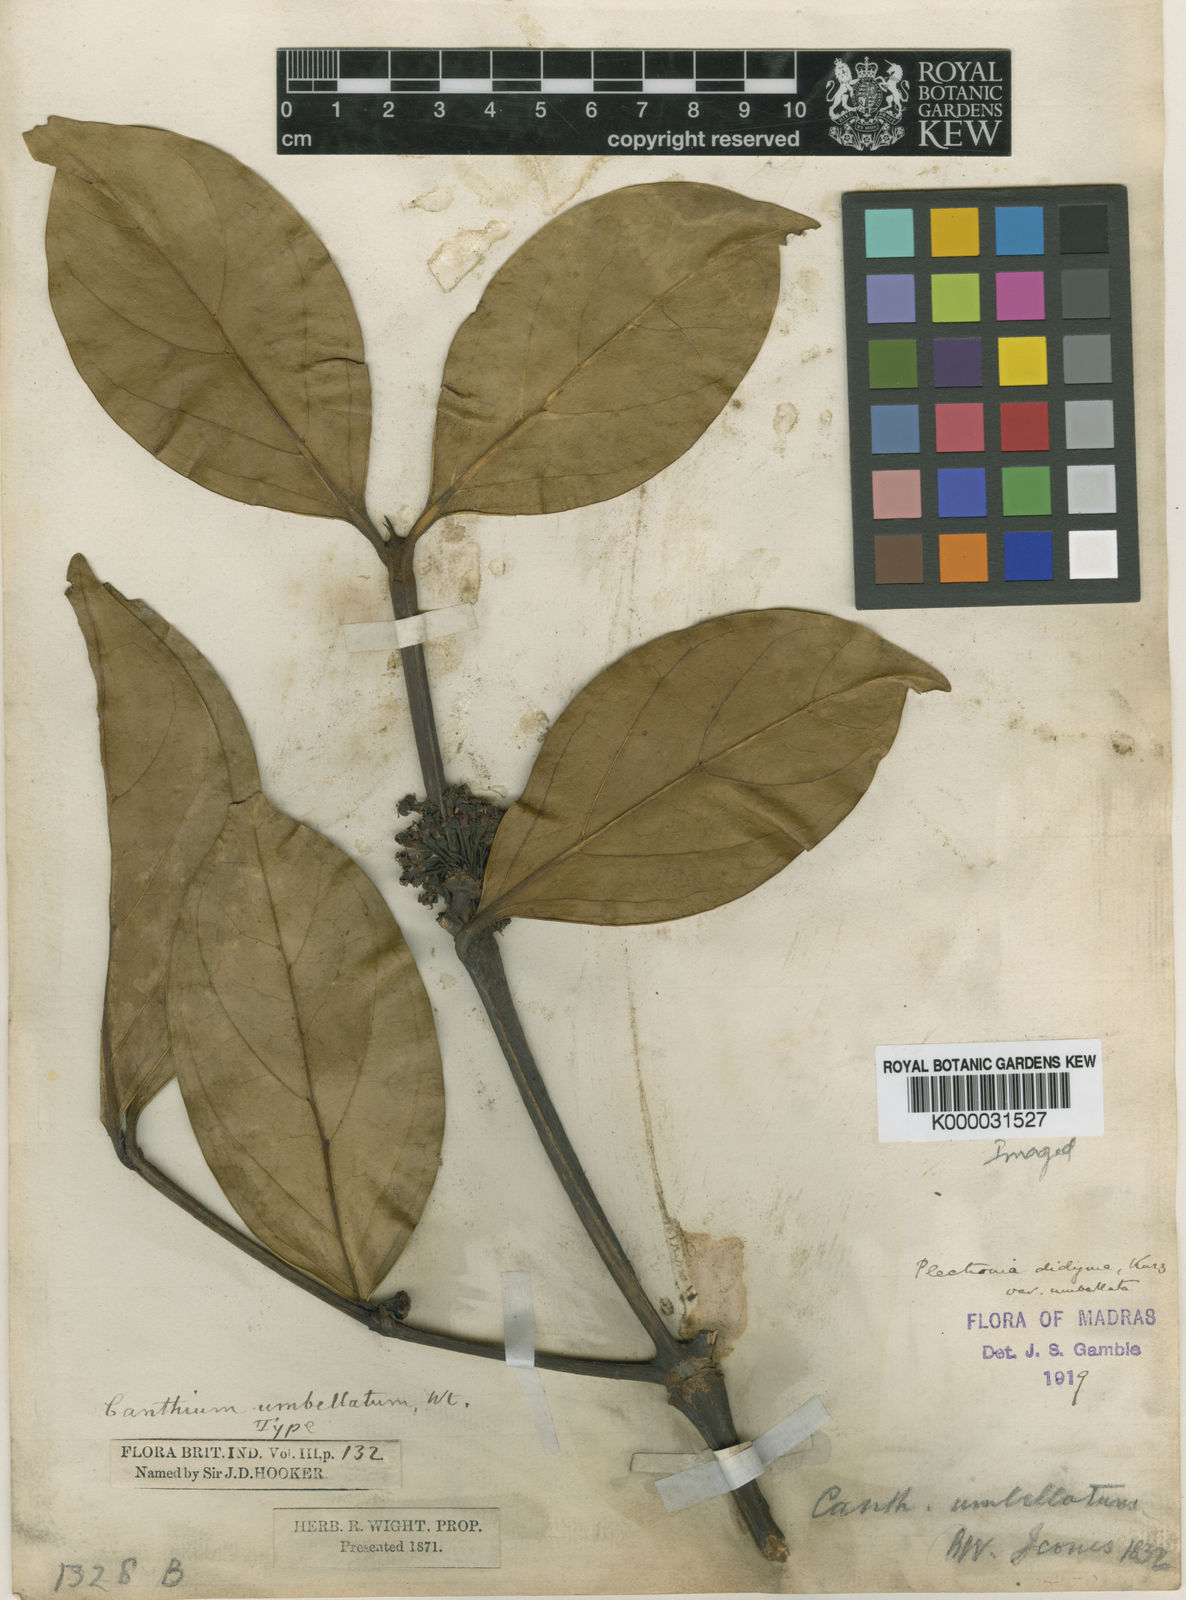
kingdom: Plantae
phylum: Tracheophyta
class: Magnoliopsida
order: Gentianales
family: Rubiaceae
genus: Psydrax
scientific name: Psydrax umbellatus
